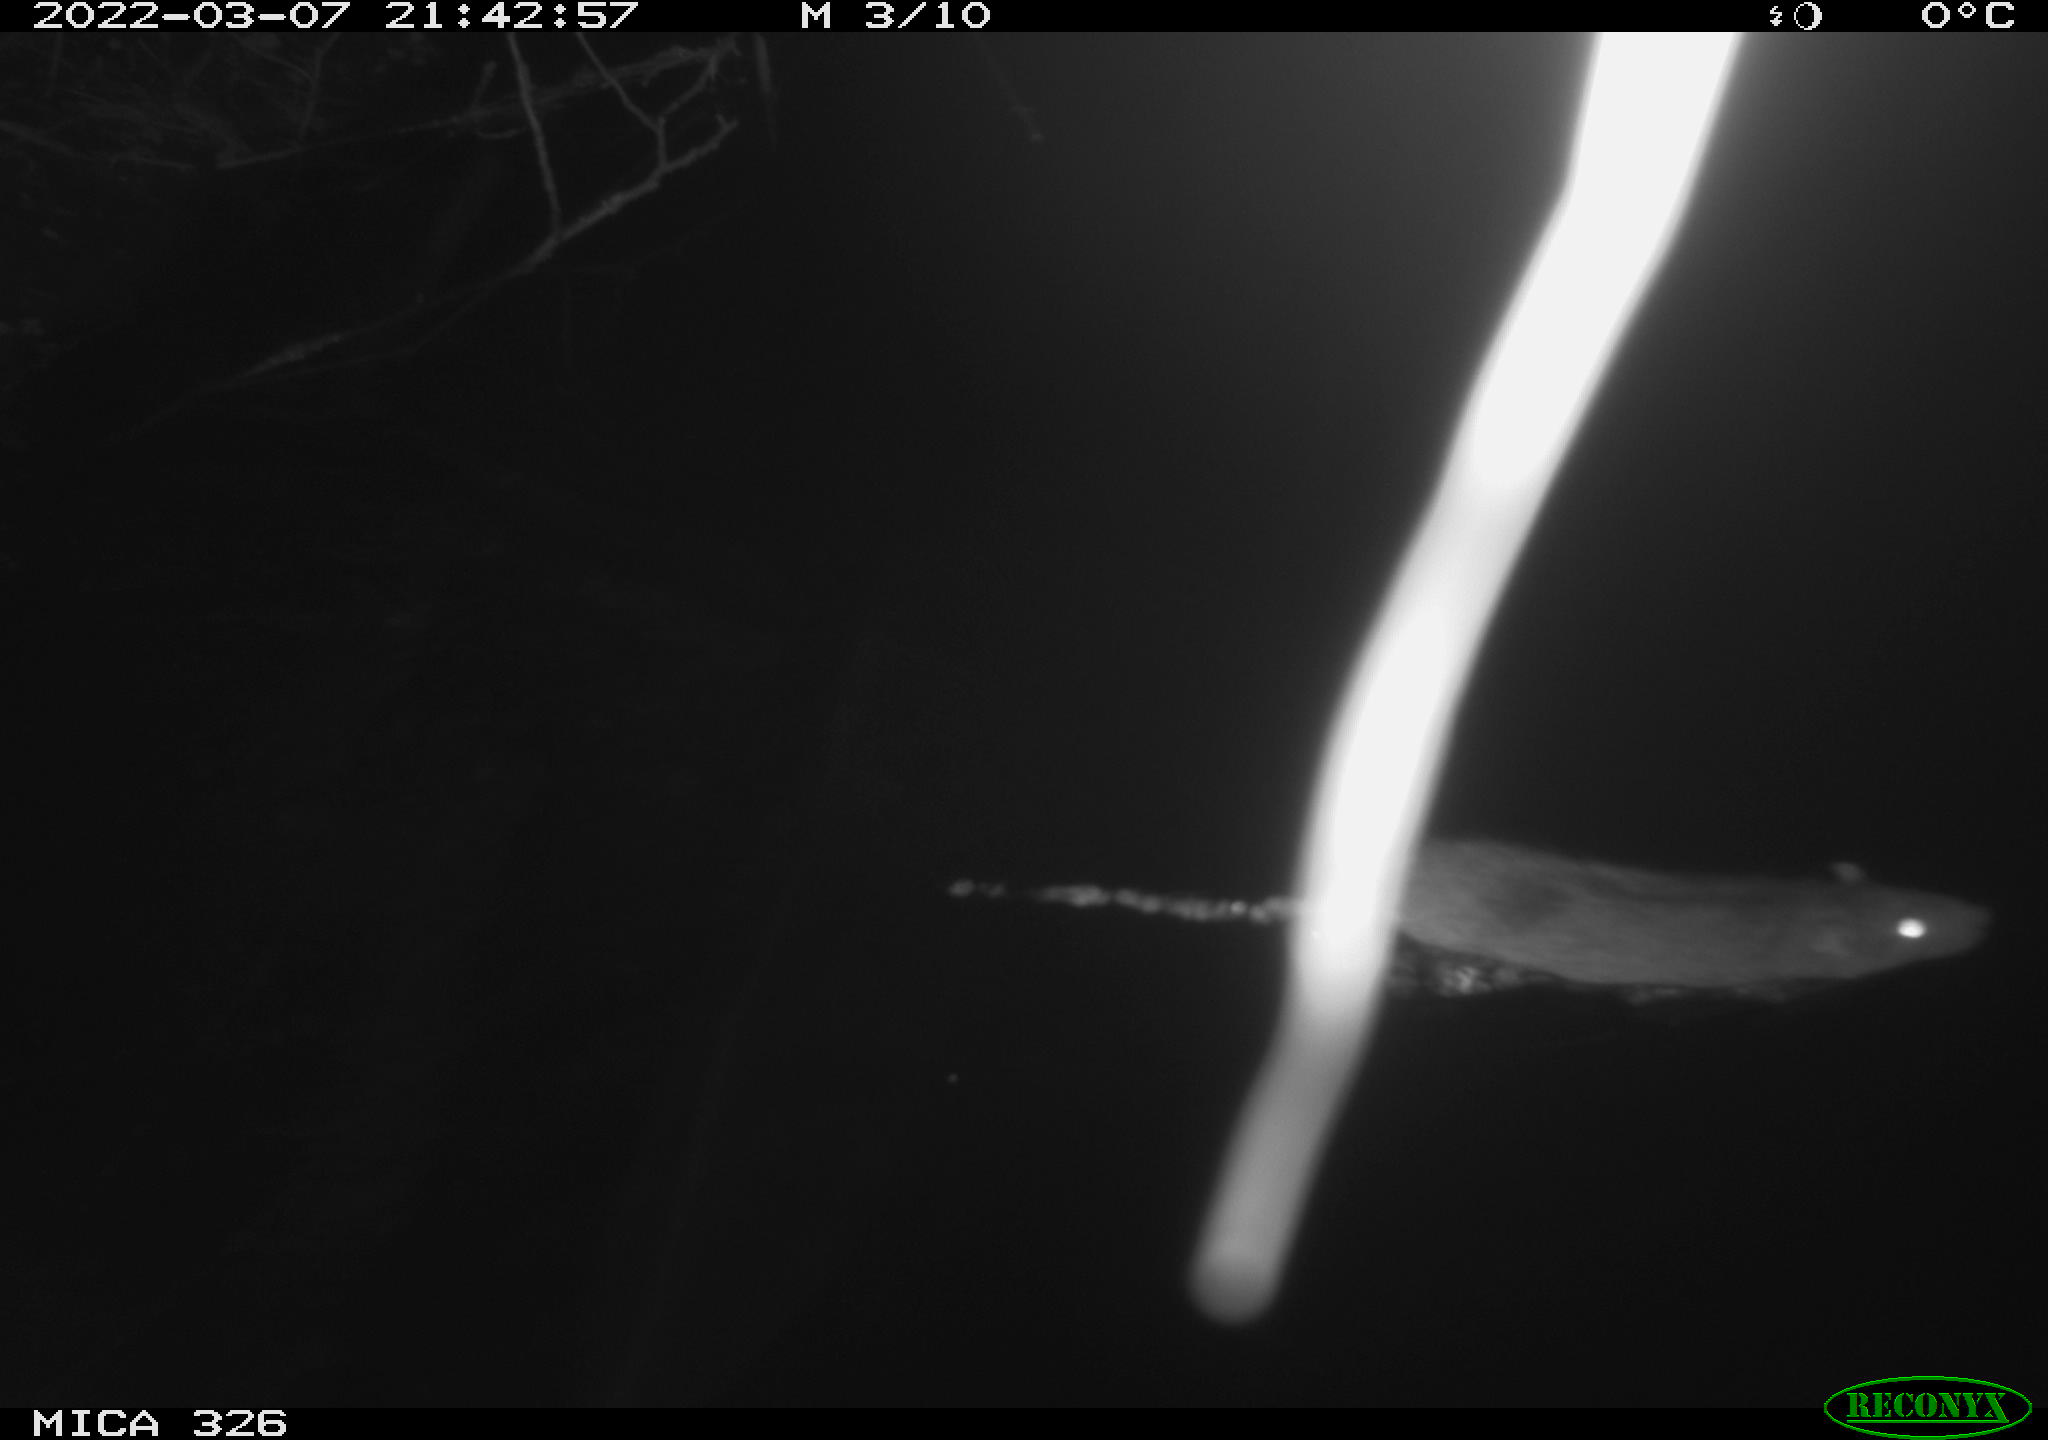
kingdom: Animalia
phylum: Chordata
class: Mammalia
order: Rodentia
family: Muridae
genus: Rattus
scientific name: Rattus norvegicus
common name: Brown rat
